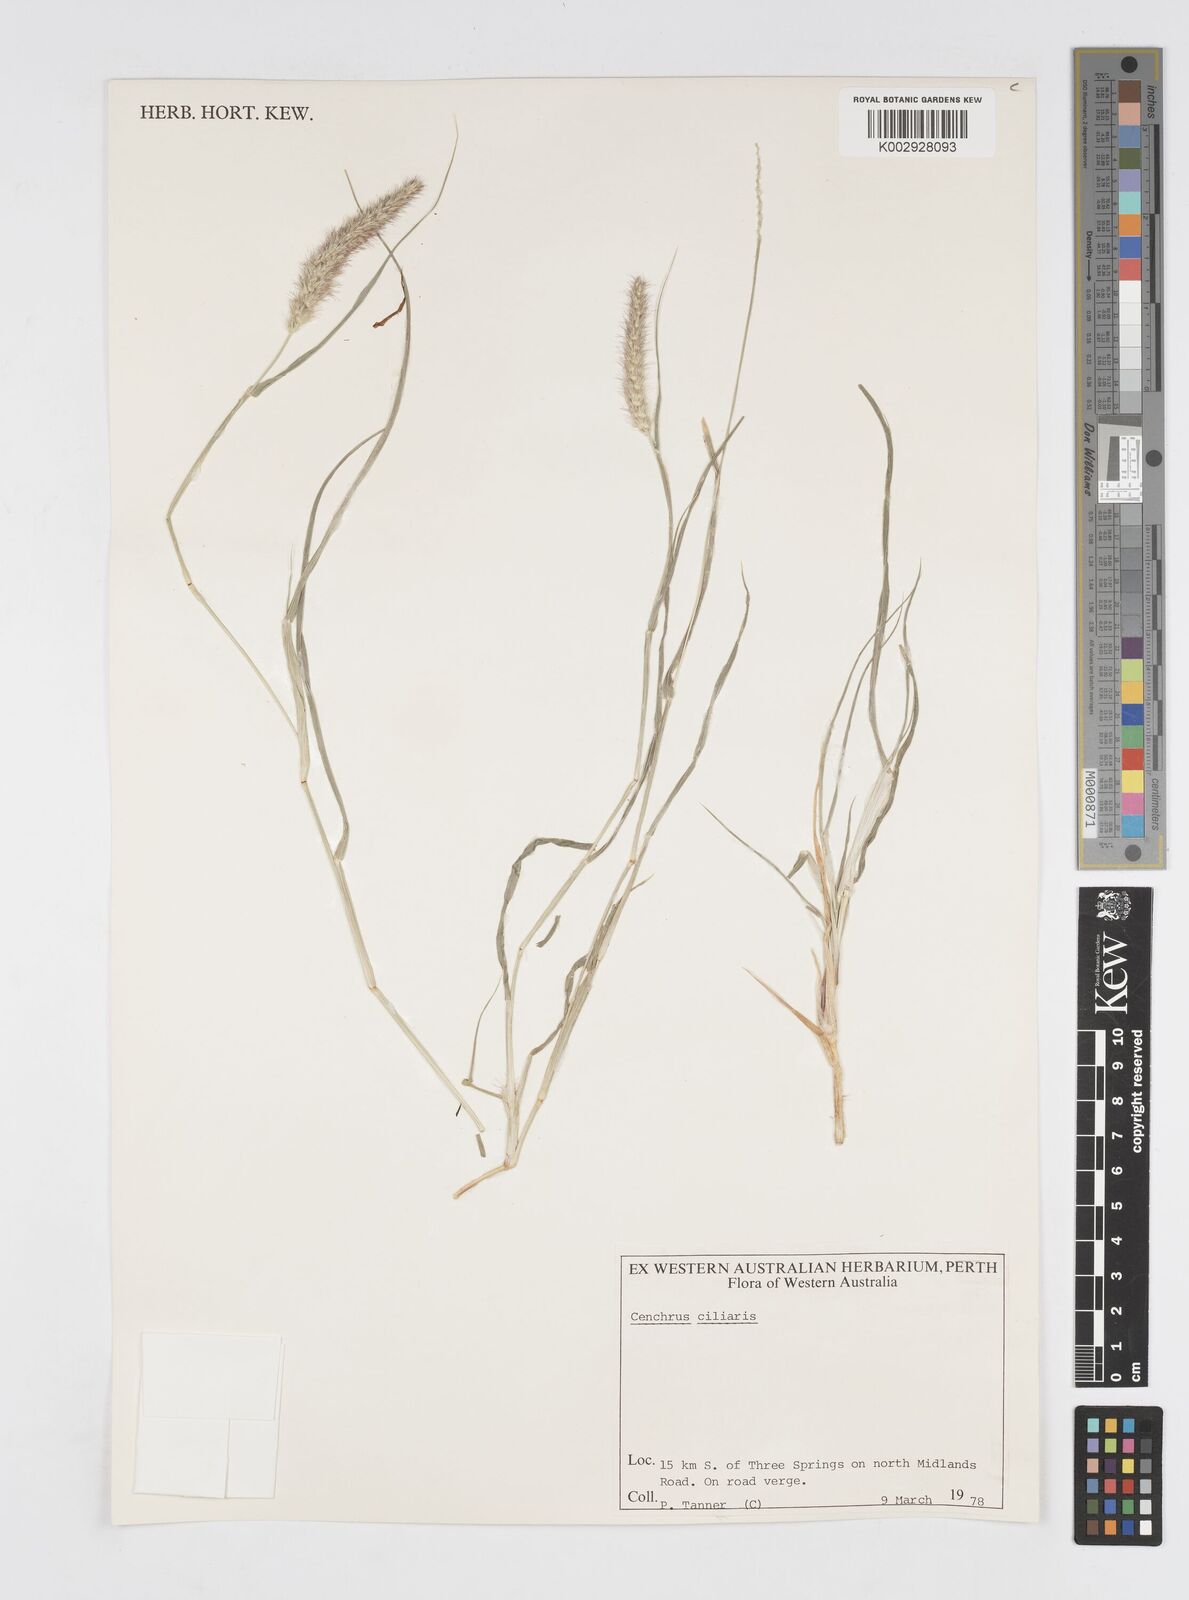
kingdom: Plantae
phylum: Tracheophyta
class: Liliopsida
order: Poales
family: Poaceae
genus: Cenchrus
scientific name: Cenchrus ciliaris
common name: Buffelgrass
